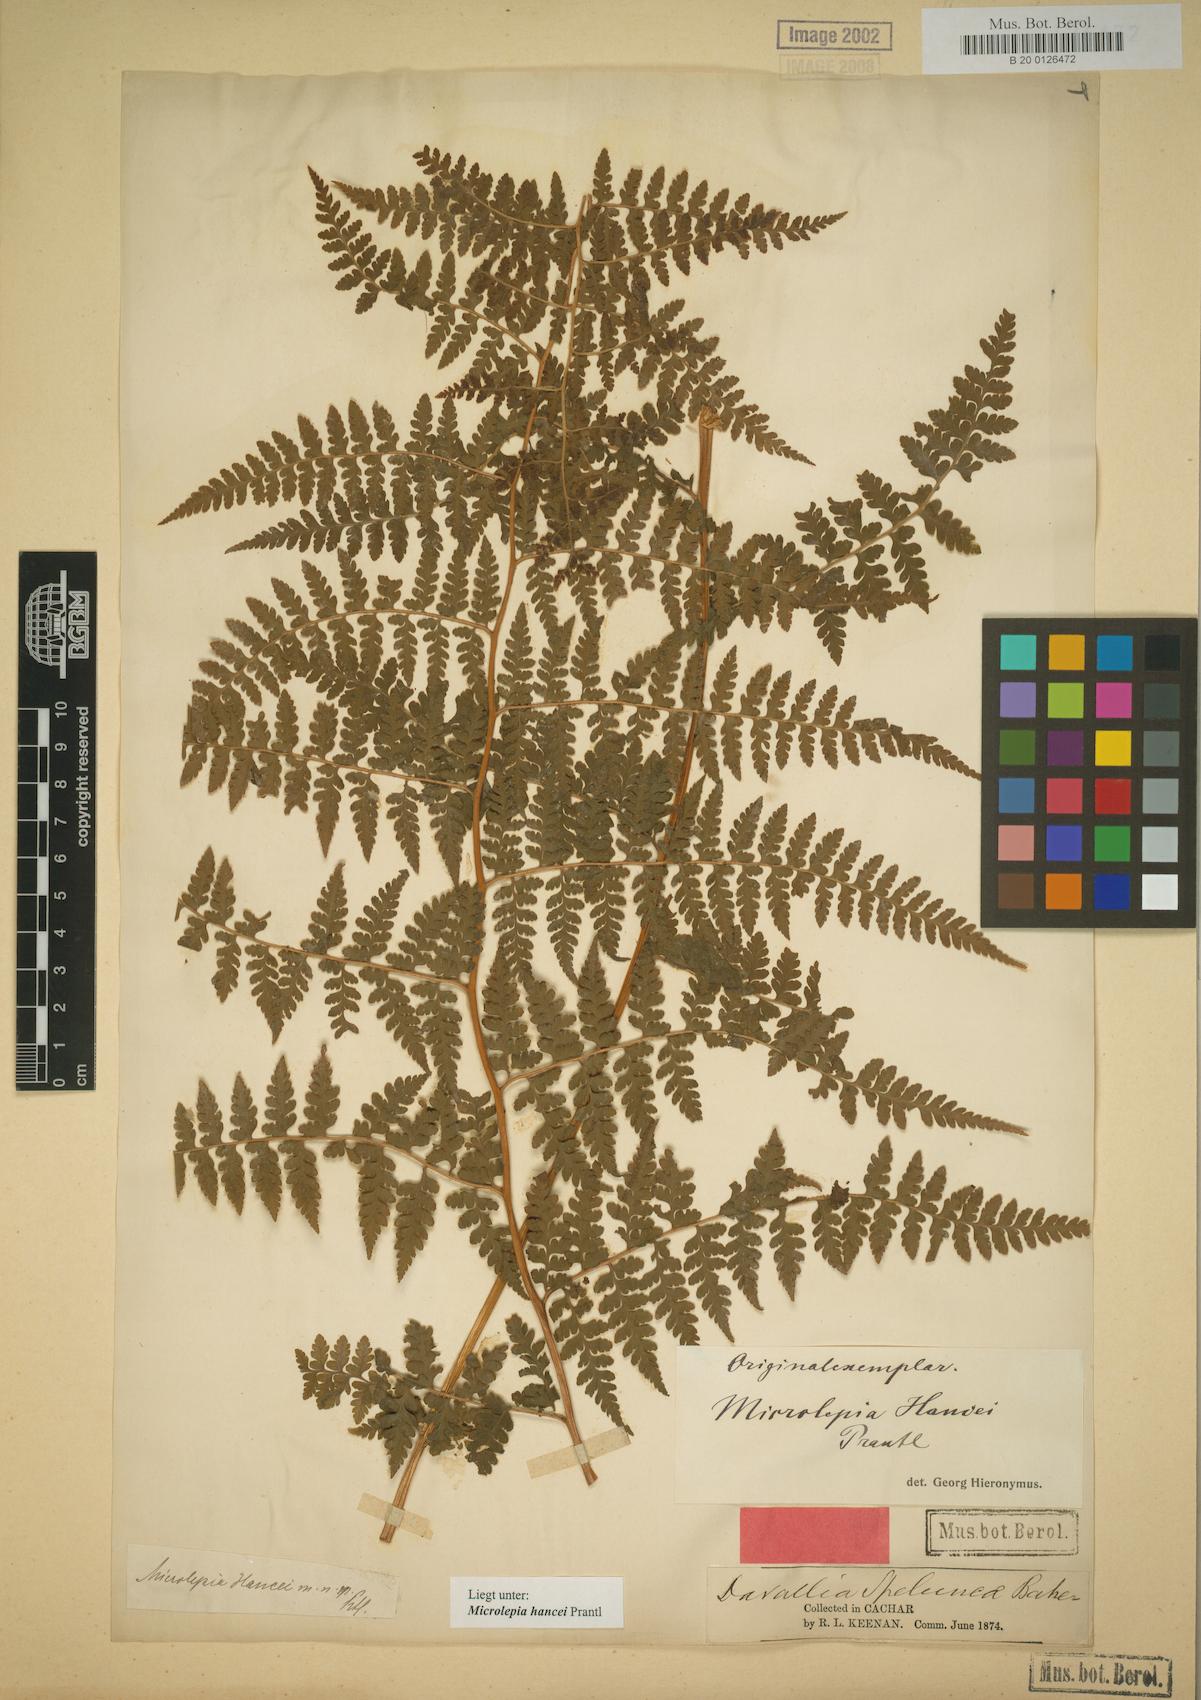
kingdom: Plantae
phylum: Tracheophyta
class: Polypodiopsida
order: Polypodiales
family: Dennstaedtiaceae
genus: Microlepia
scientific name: Microlepia nepalensis
